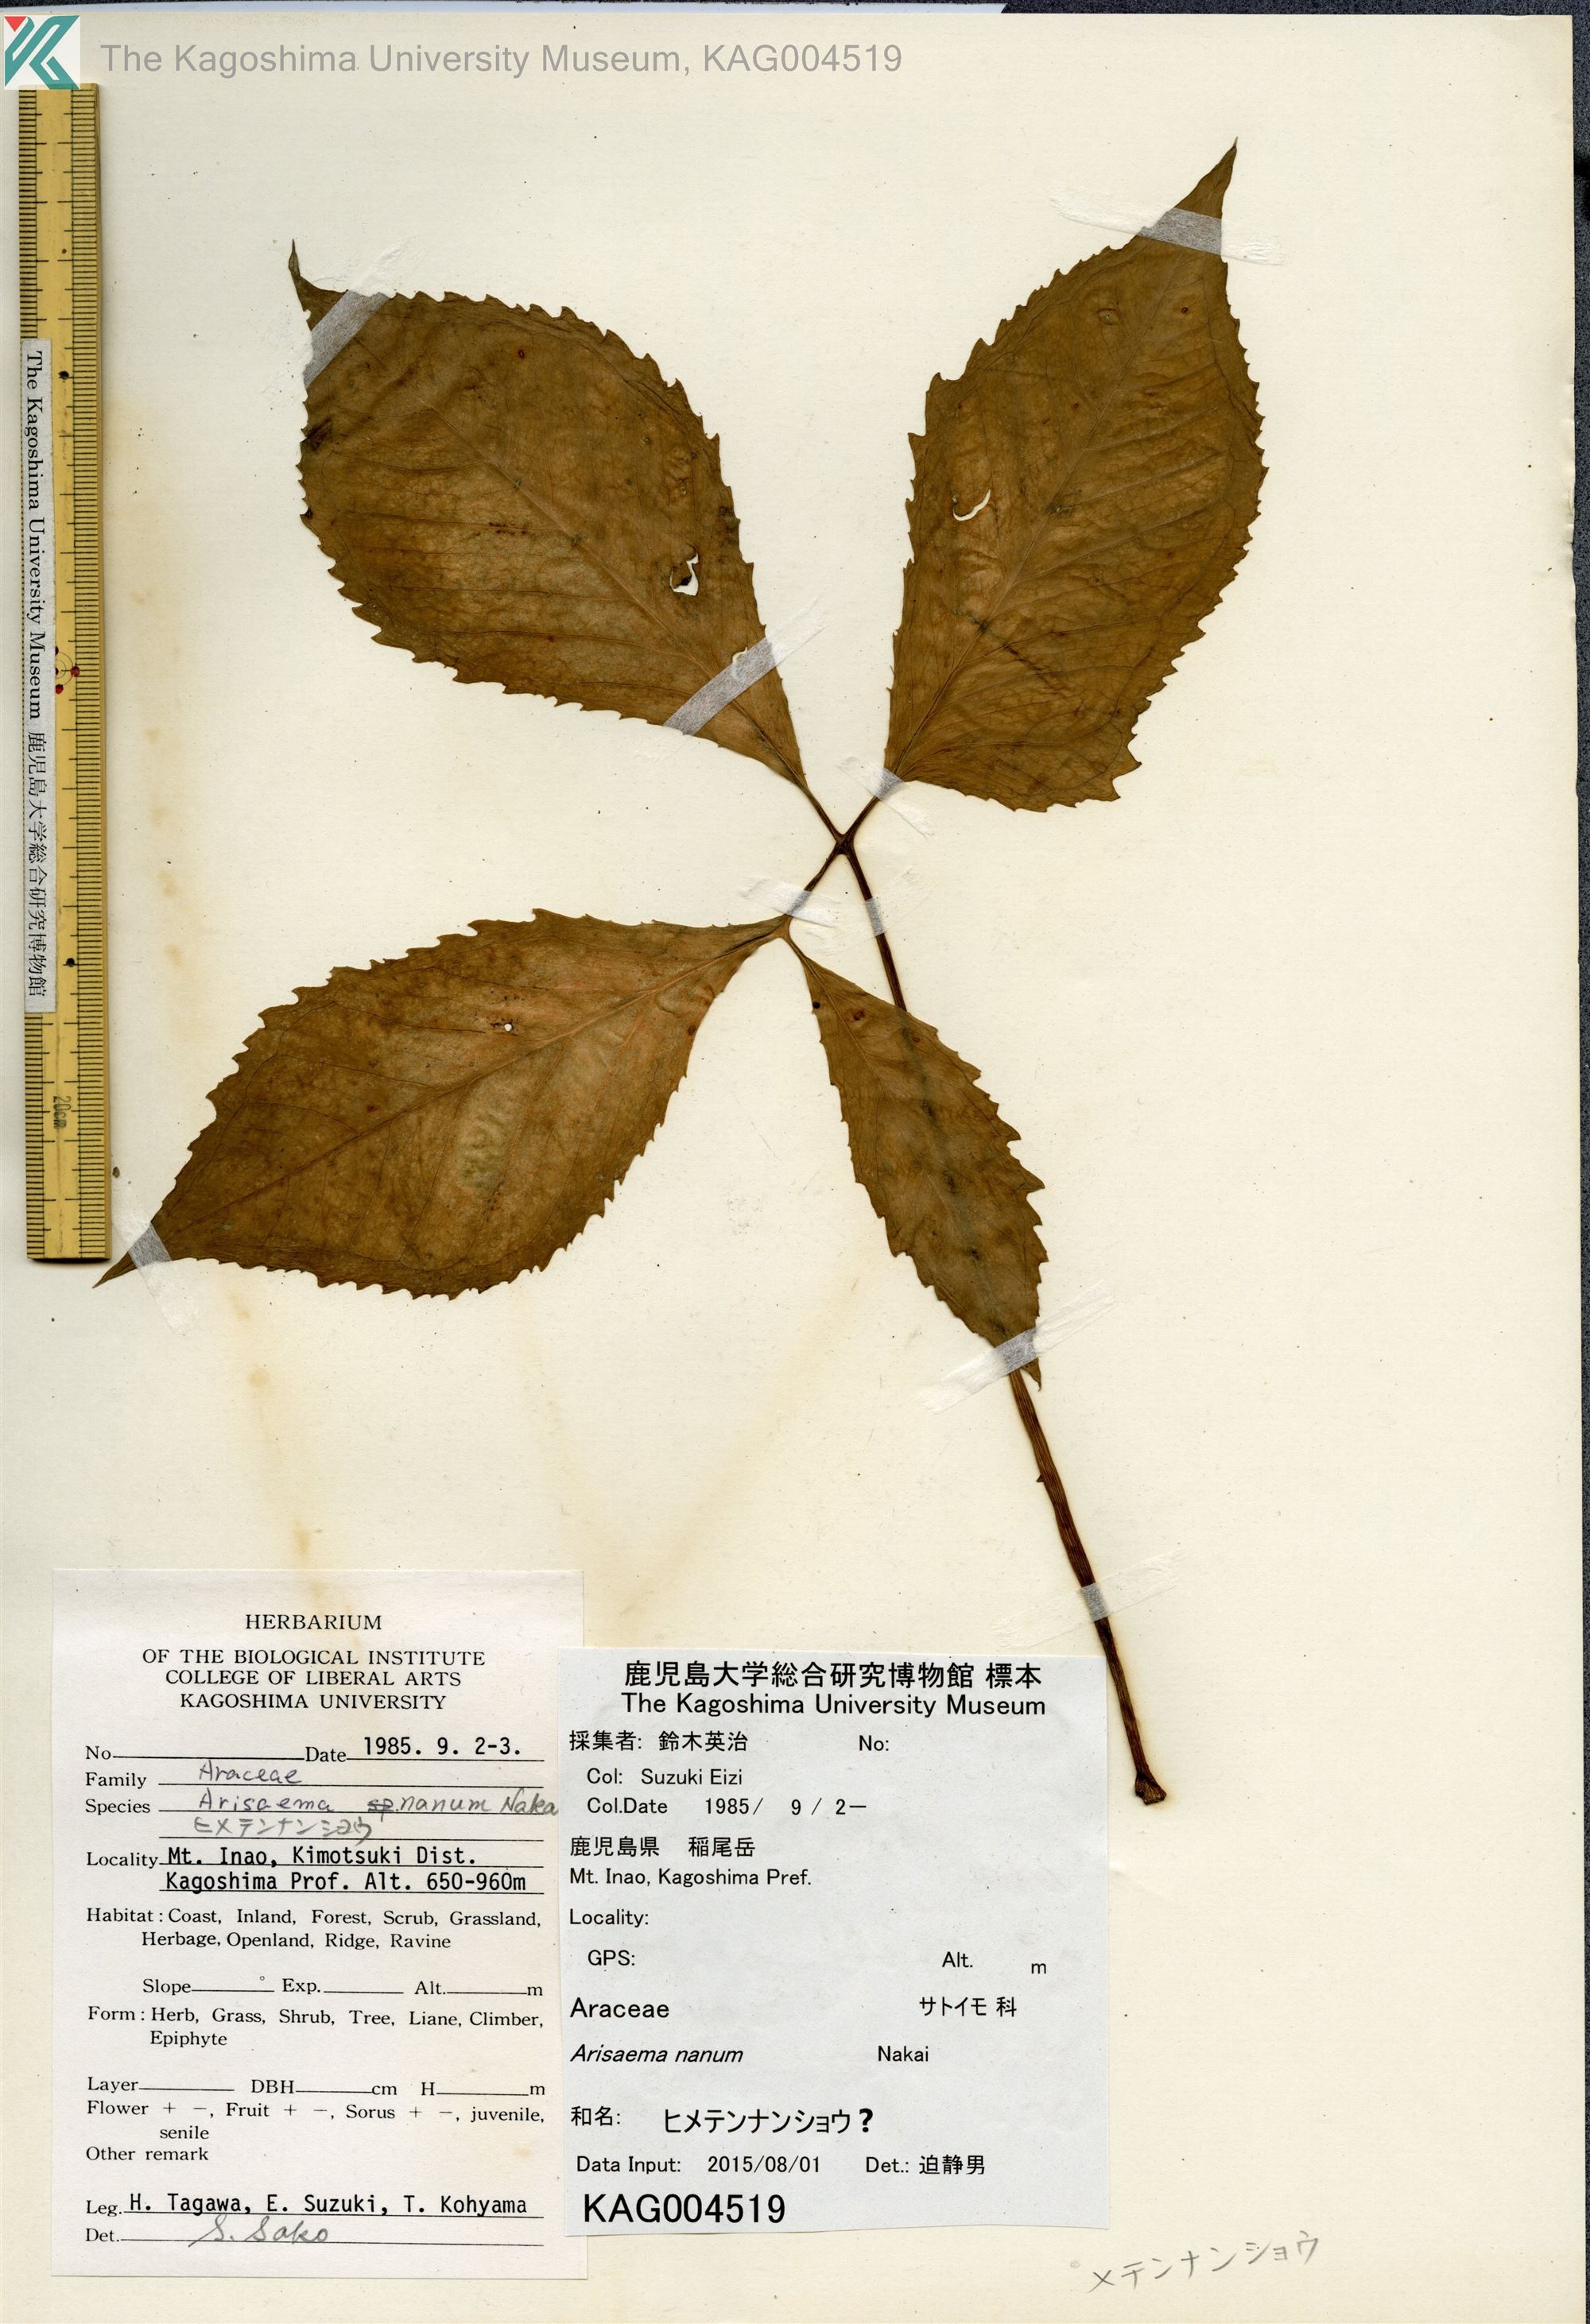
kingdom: Plantae
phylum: Tracheophyta
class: Liliopsida
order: Alismatales
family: Araceae
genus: Arisaema
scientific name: Arisaema sazensoo
